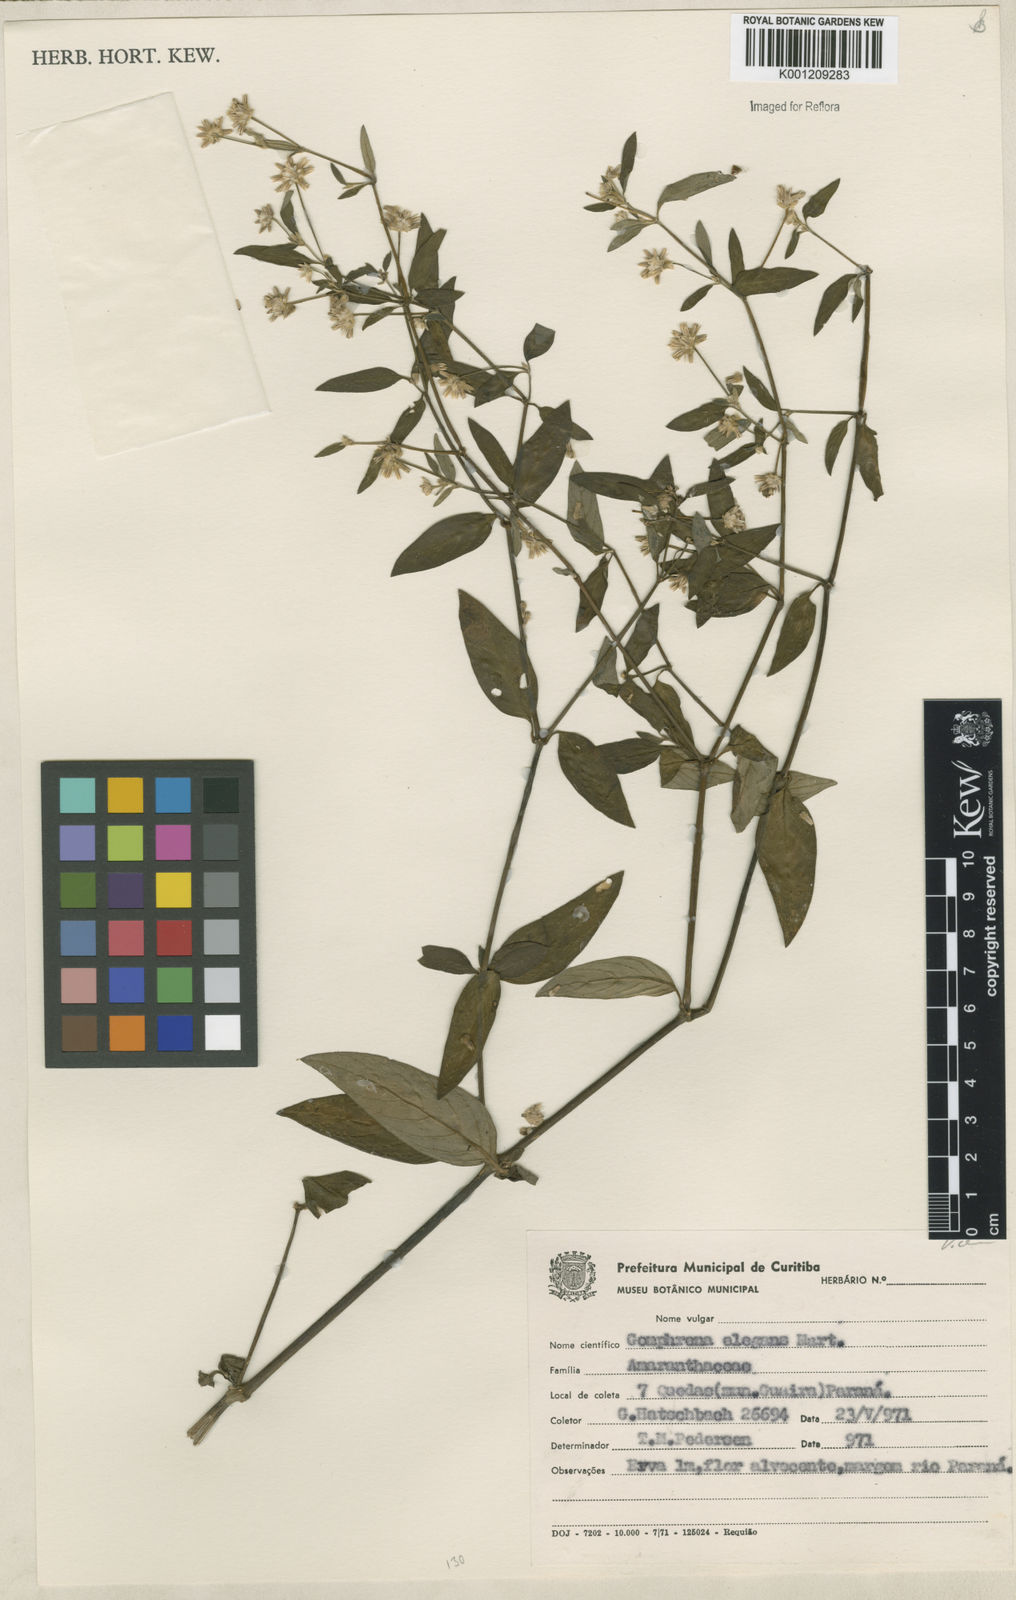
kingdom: Plantae
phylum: Tracheophyta
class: Magnoliopsida
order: Caryophyllales
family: Amaranthaceae
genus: Gomphrena
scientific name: Gomphrena elegans
